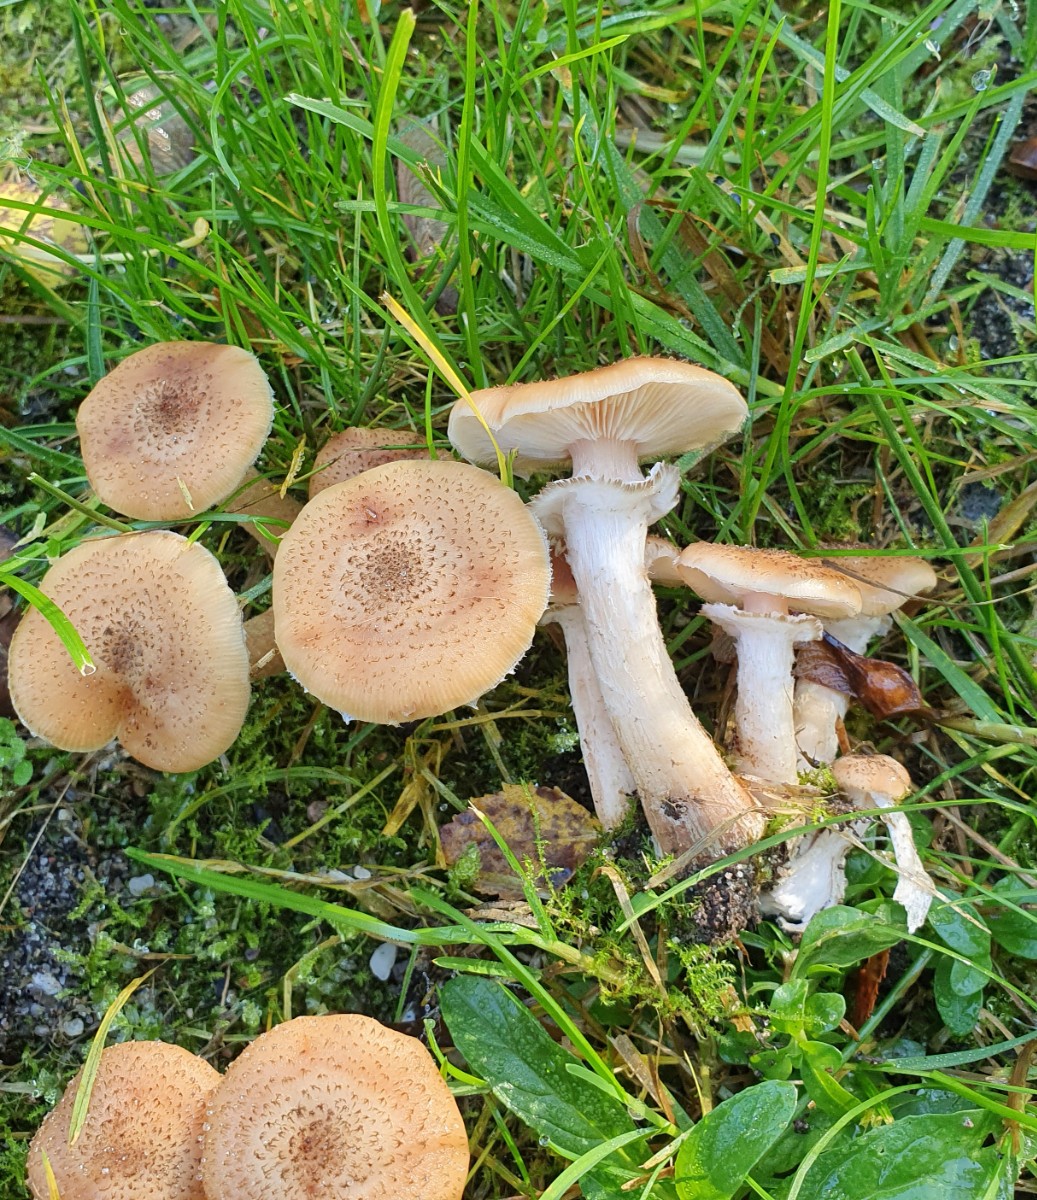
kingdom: Fungi
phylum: Basidiomycota
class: Agaricomycetes
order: Agaricales
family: Physalacriaceae
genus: Armillaria
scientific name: Armillaria ostoyae
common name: mørk honningsvamp
